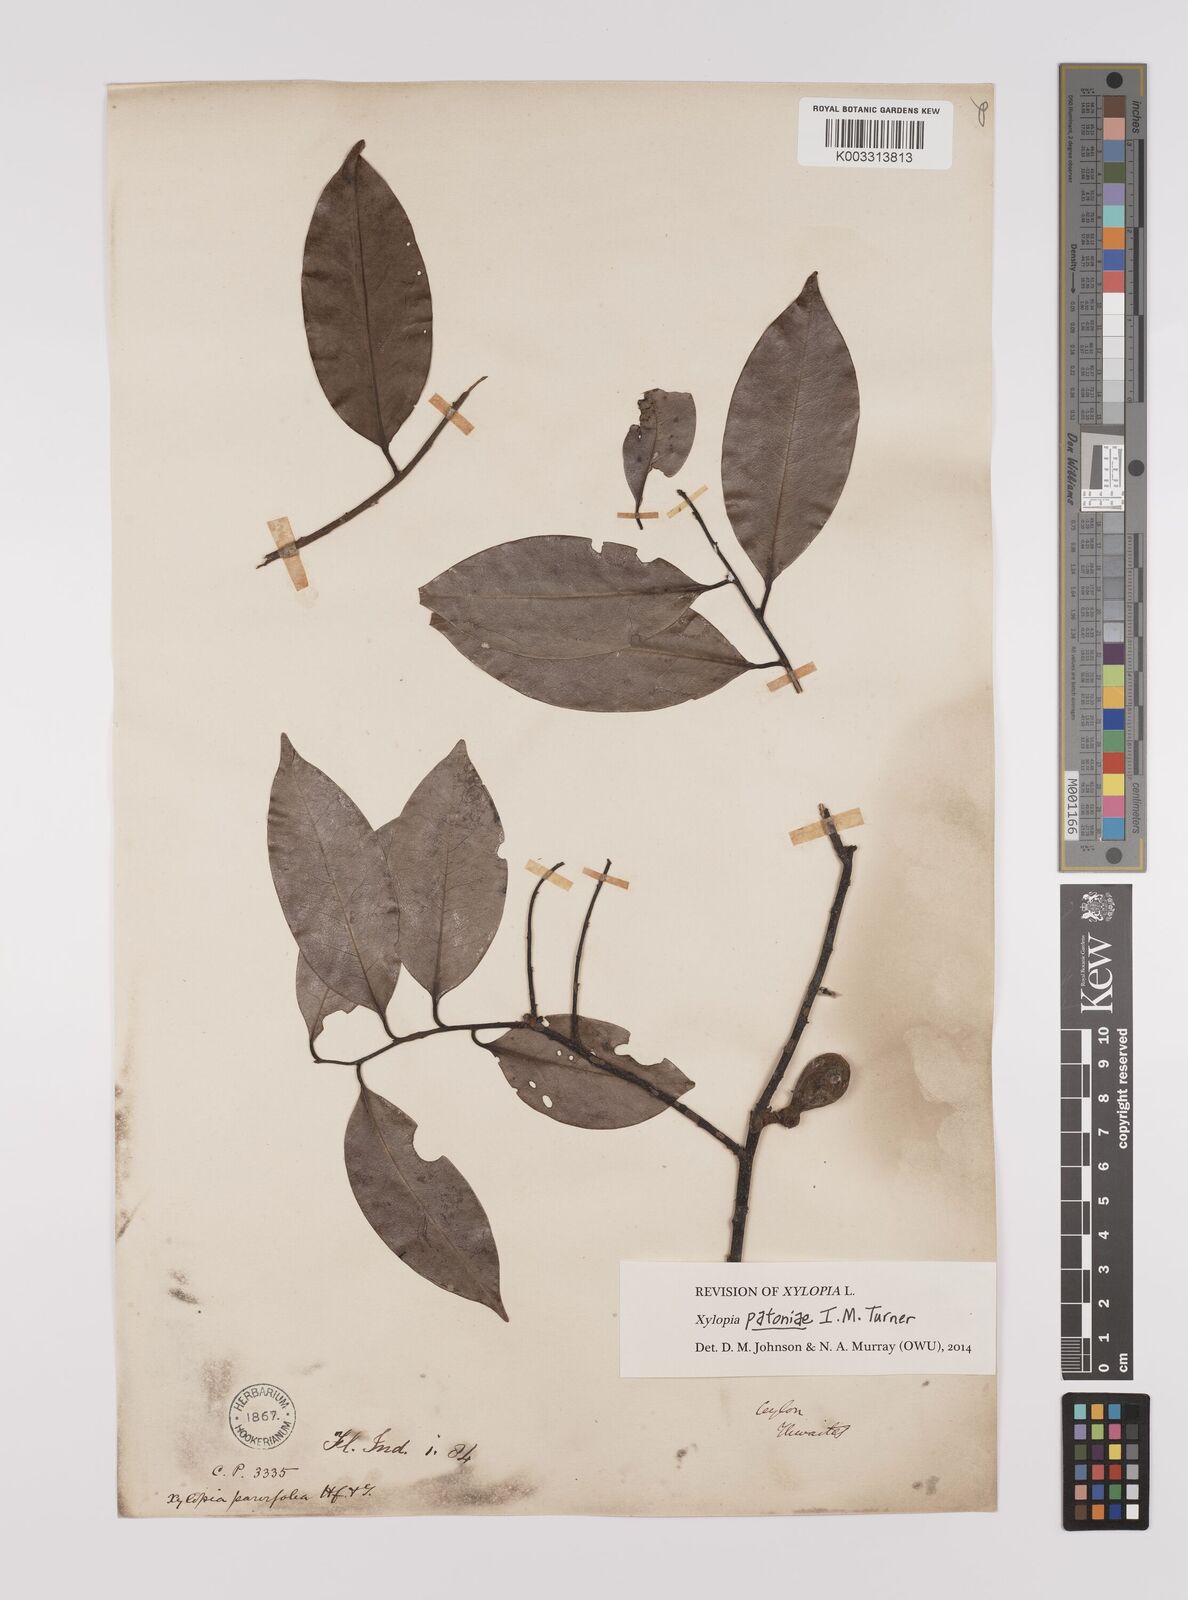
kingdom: Plantae
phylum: Tracheophyta
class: Magnoliopsida
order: Magnoliales
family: Annonaceae
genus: Xylopia
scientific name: Xylopia
